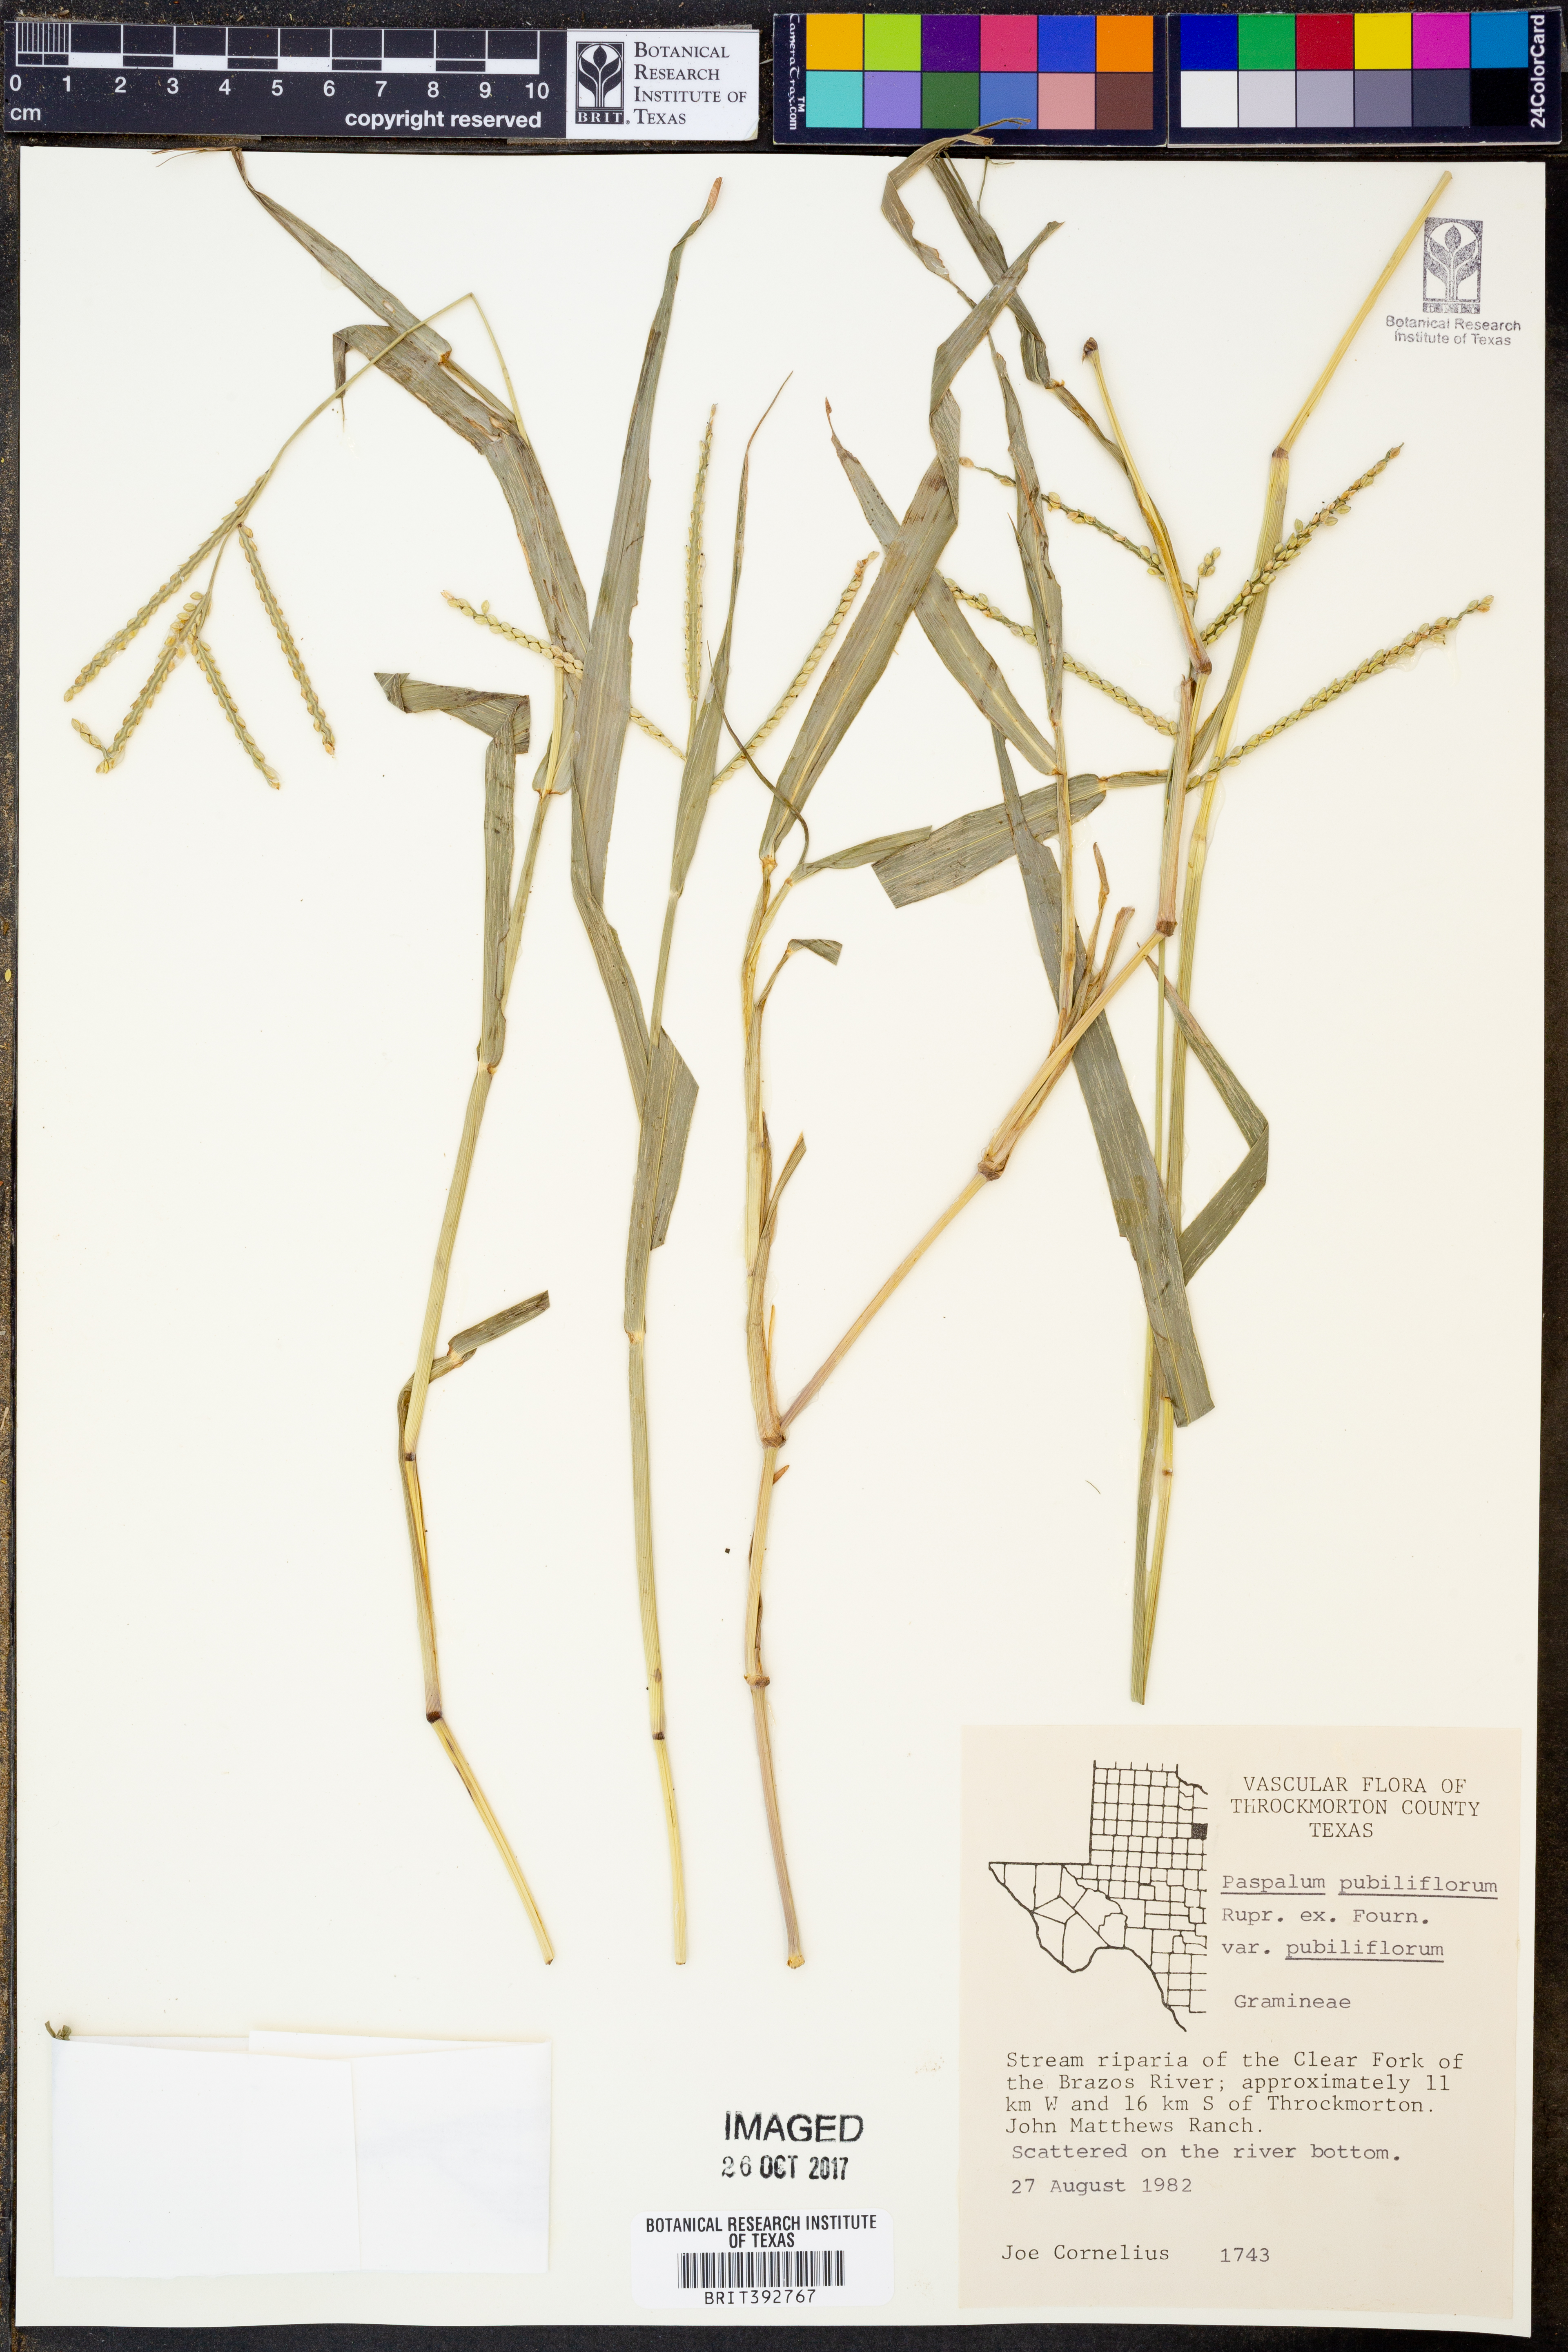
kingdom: Plantae
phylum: Tracheophyta
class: Liliopsida
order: Poales
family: Poaceae
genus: Paspalum
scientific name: Paspalum pubiflorum
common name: Hairy-seed paspalum
